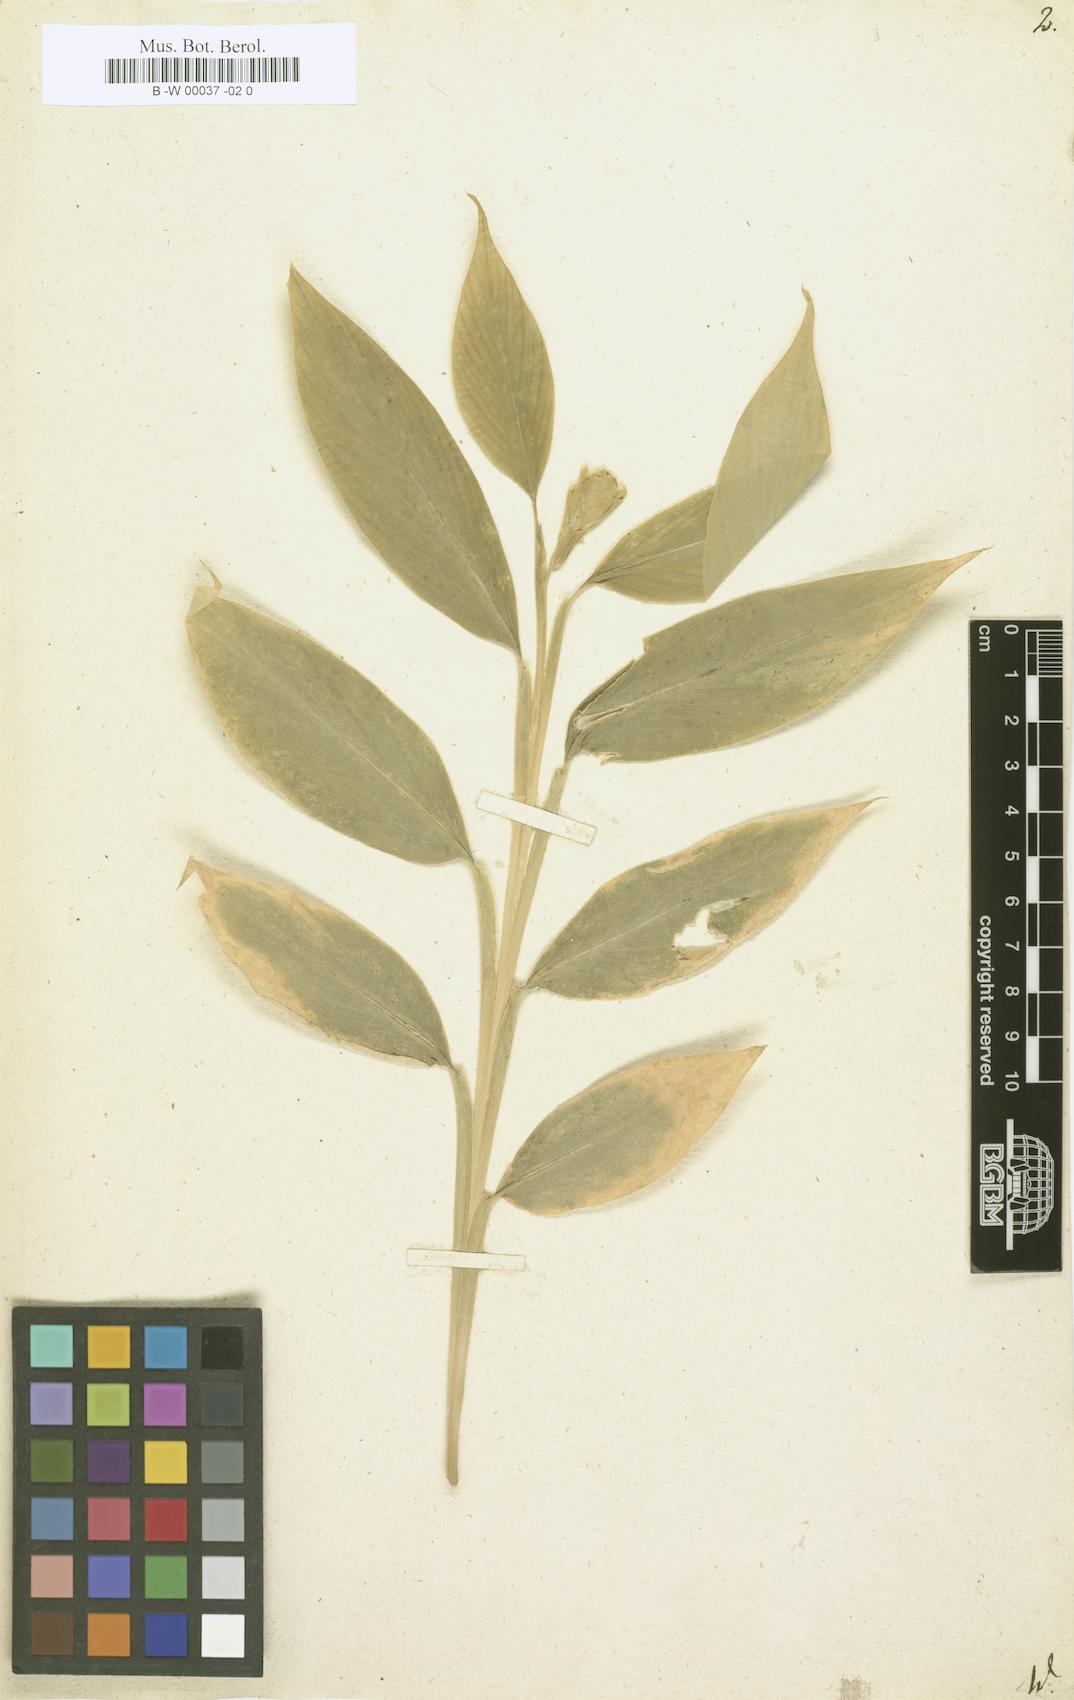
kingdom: Plantae
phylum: Tracheophyta
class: Liliopsida
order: Zingiberales
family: Zingiberaceae
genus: Globba
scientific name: Globba marantina
